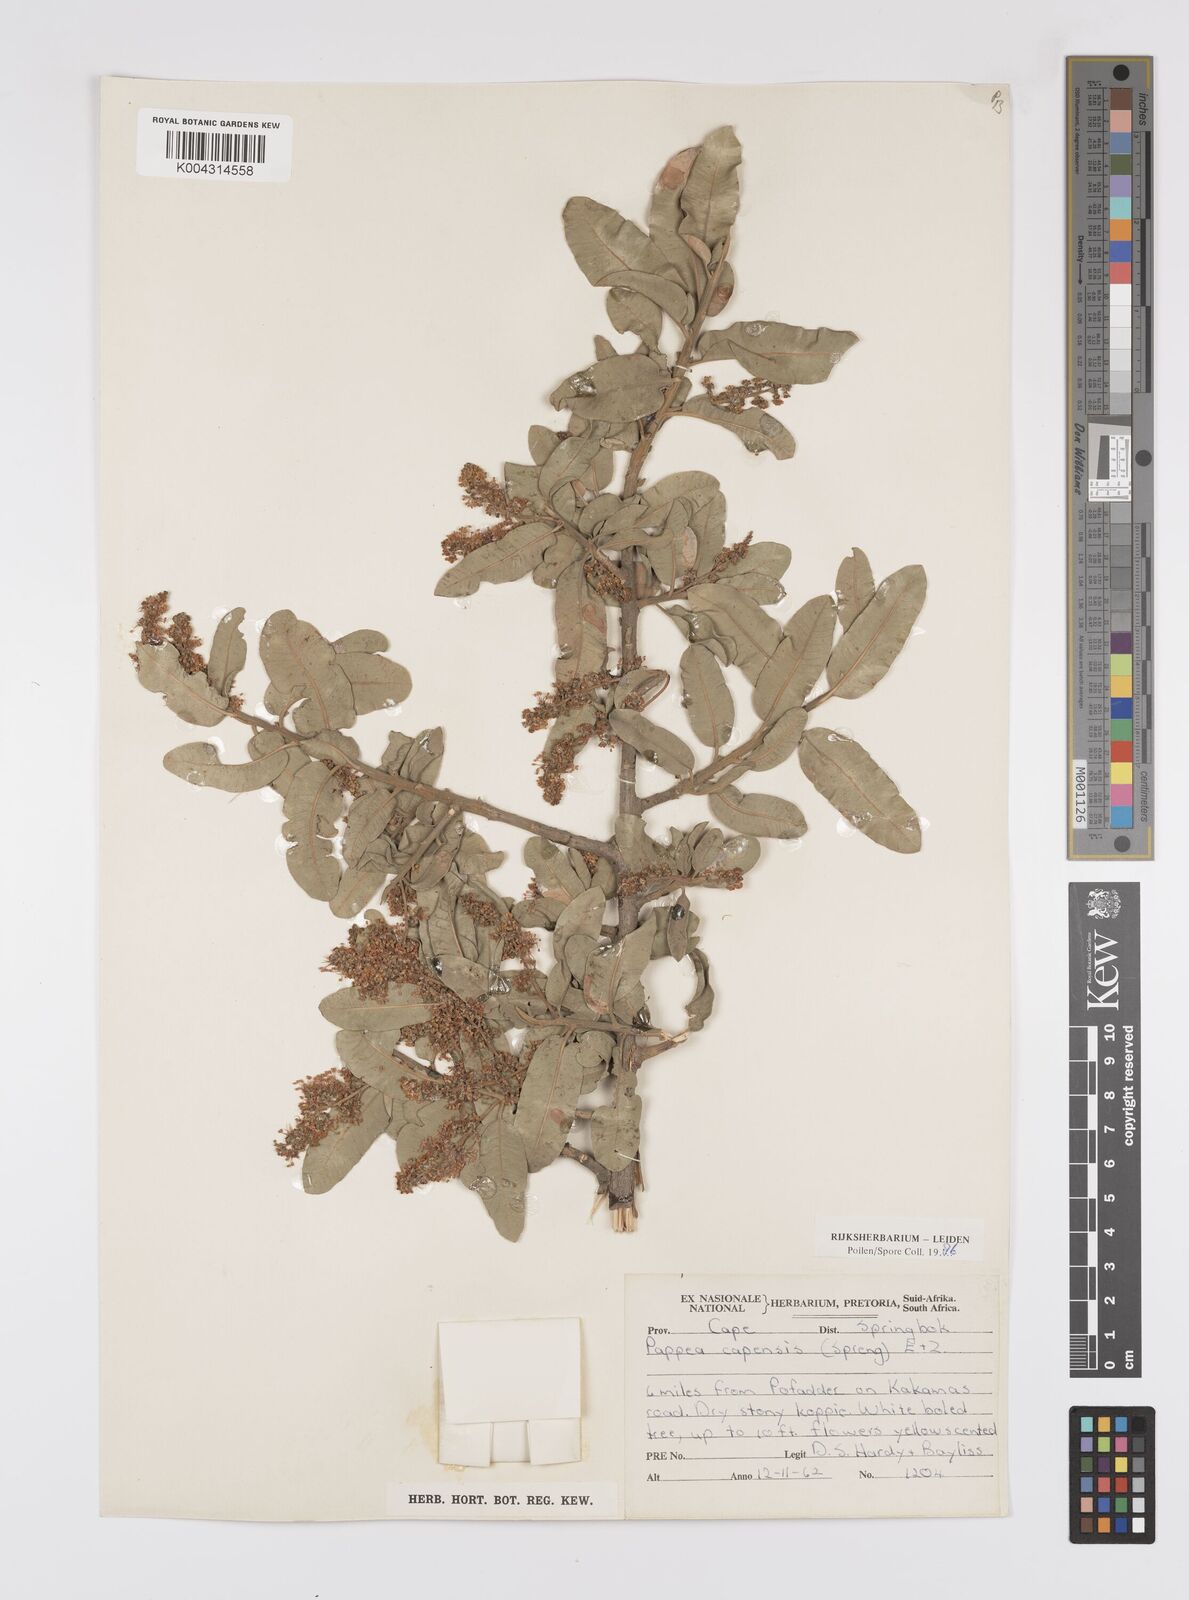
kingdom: Plantae
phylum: Tracheophyta
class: Magnoliopsida
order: Sapindales
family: Sapindaceae
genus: Pappea
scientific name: Pappea capensis
